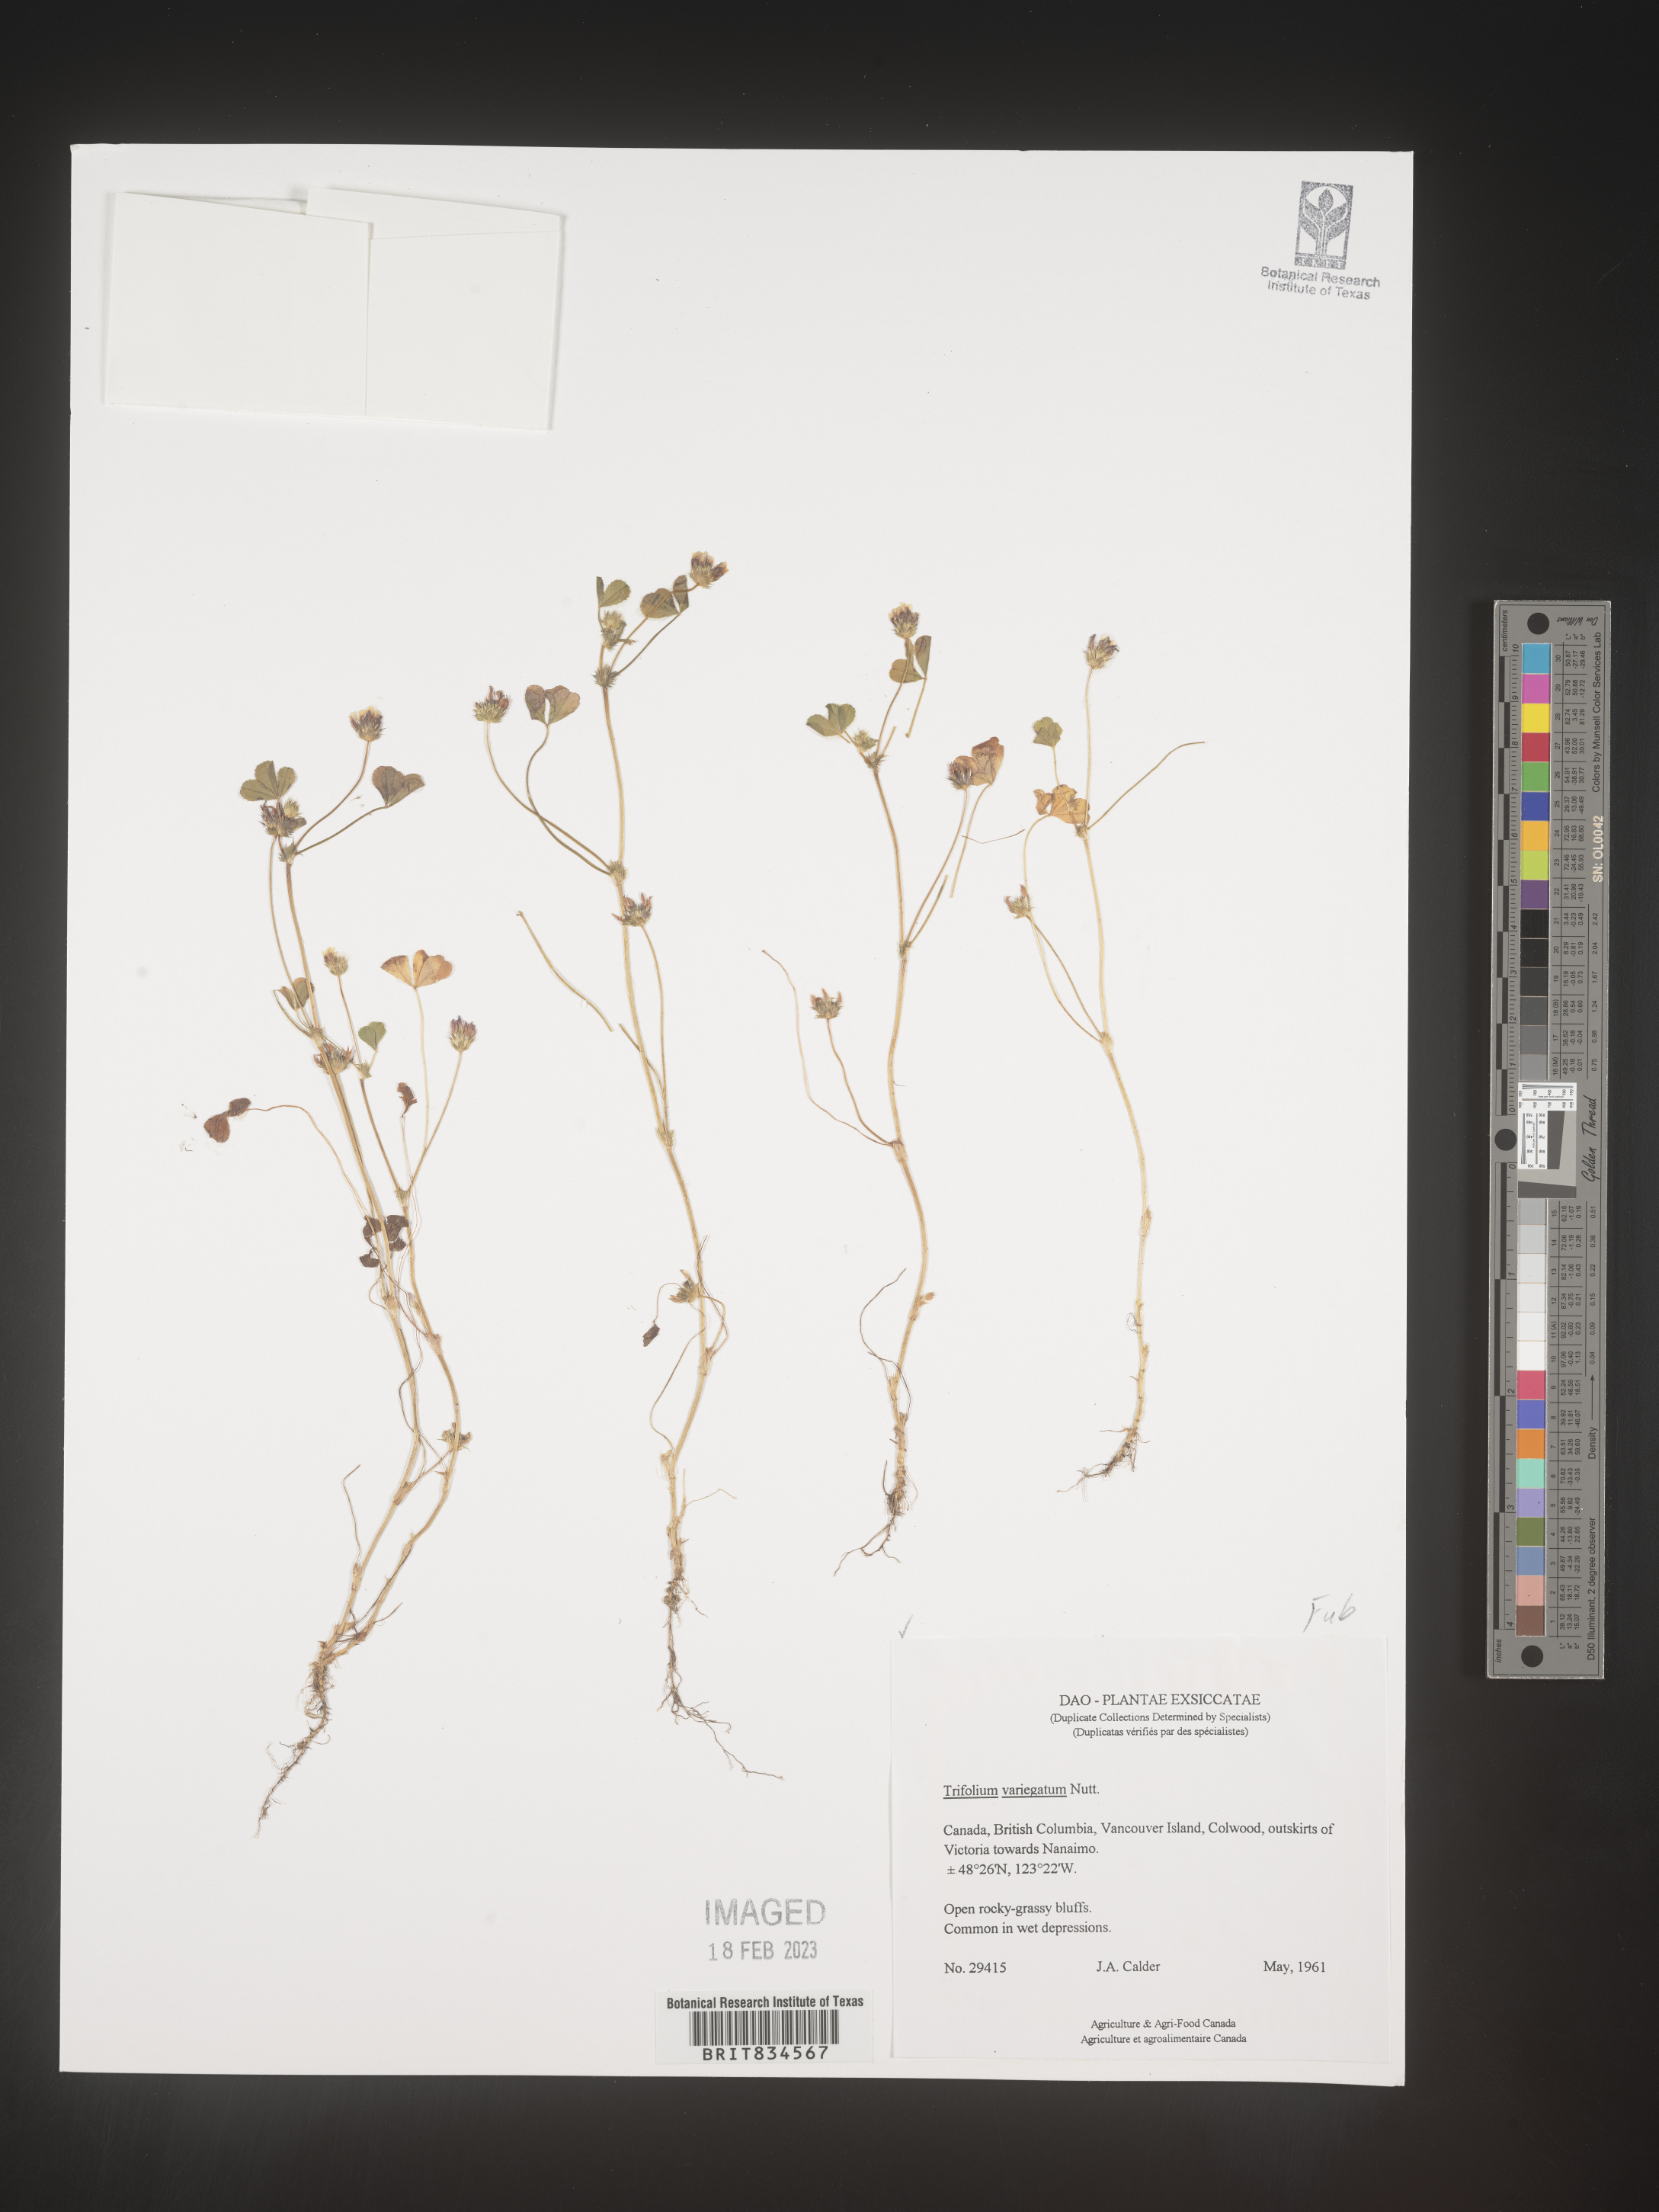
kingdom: Plantae
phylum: Tracheophyta
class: Magnoliopsida
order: Fabales
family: Fabaceae
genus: Trifolium
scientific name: Trifolium
